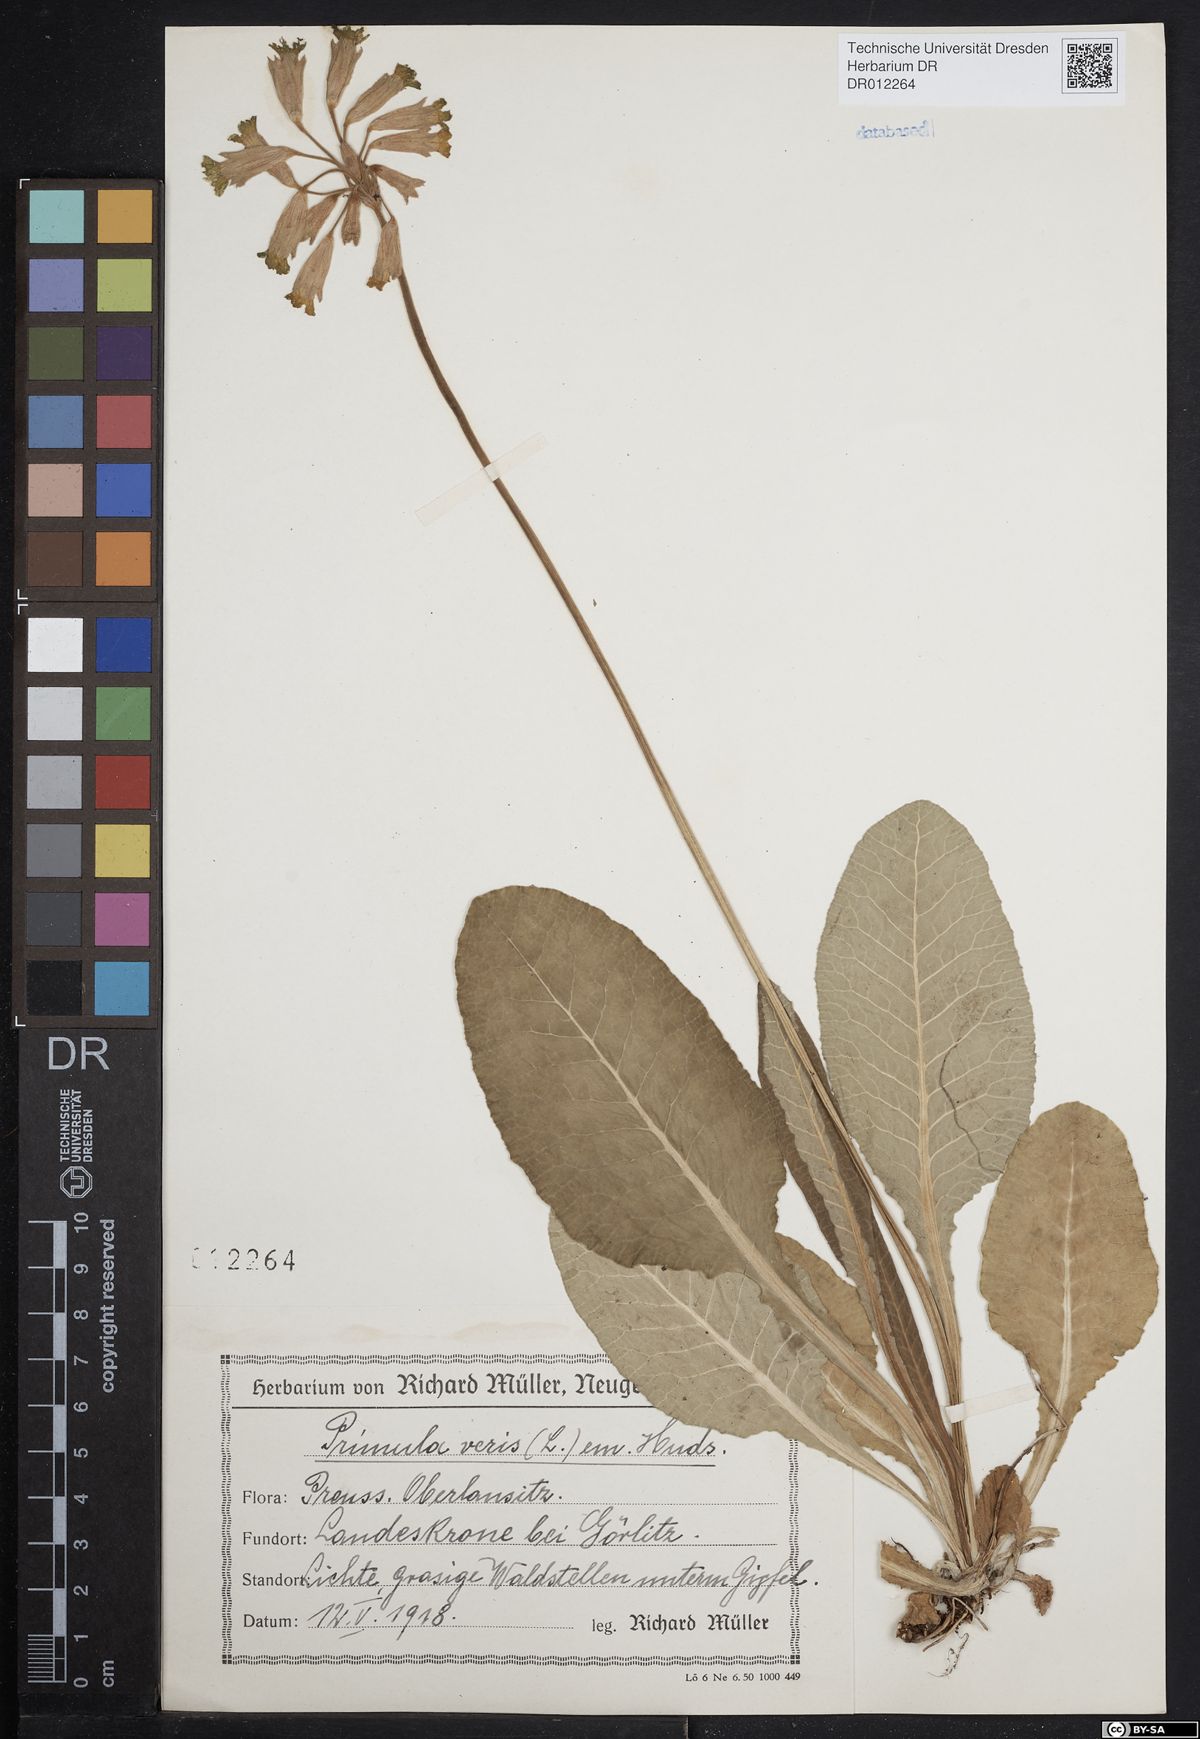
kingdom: Plantae
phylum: Tracheophyta
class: Magnoliopsida
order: Ericales
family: Primulaceae
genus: Primula
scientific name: Primula veris
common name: Cowslip
